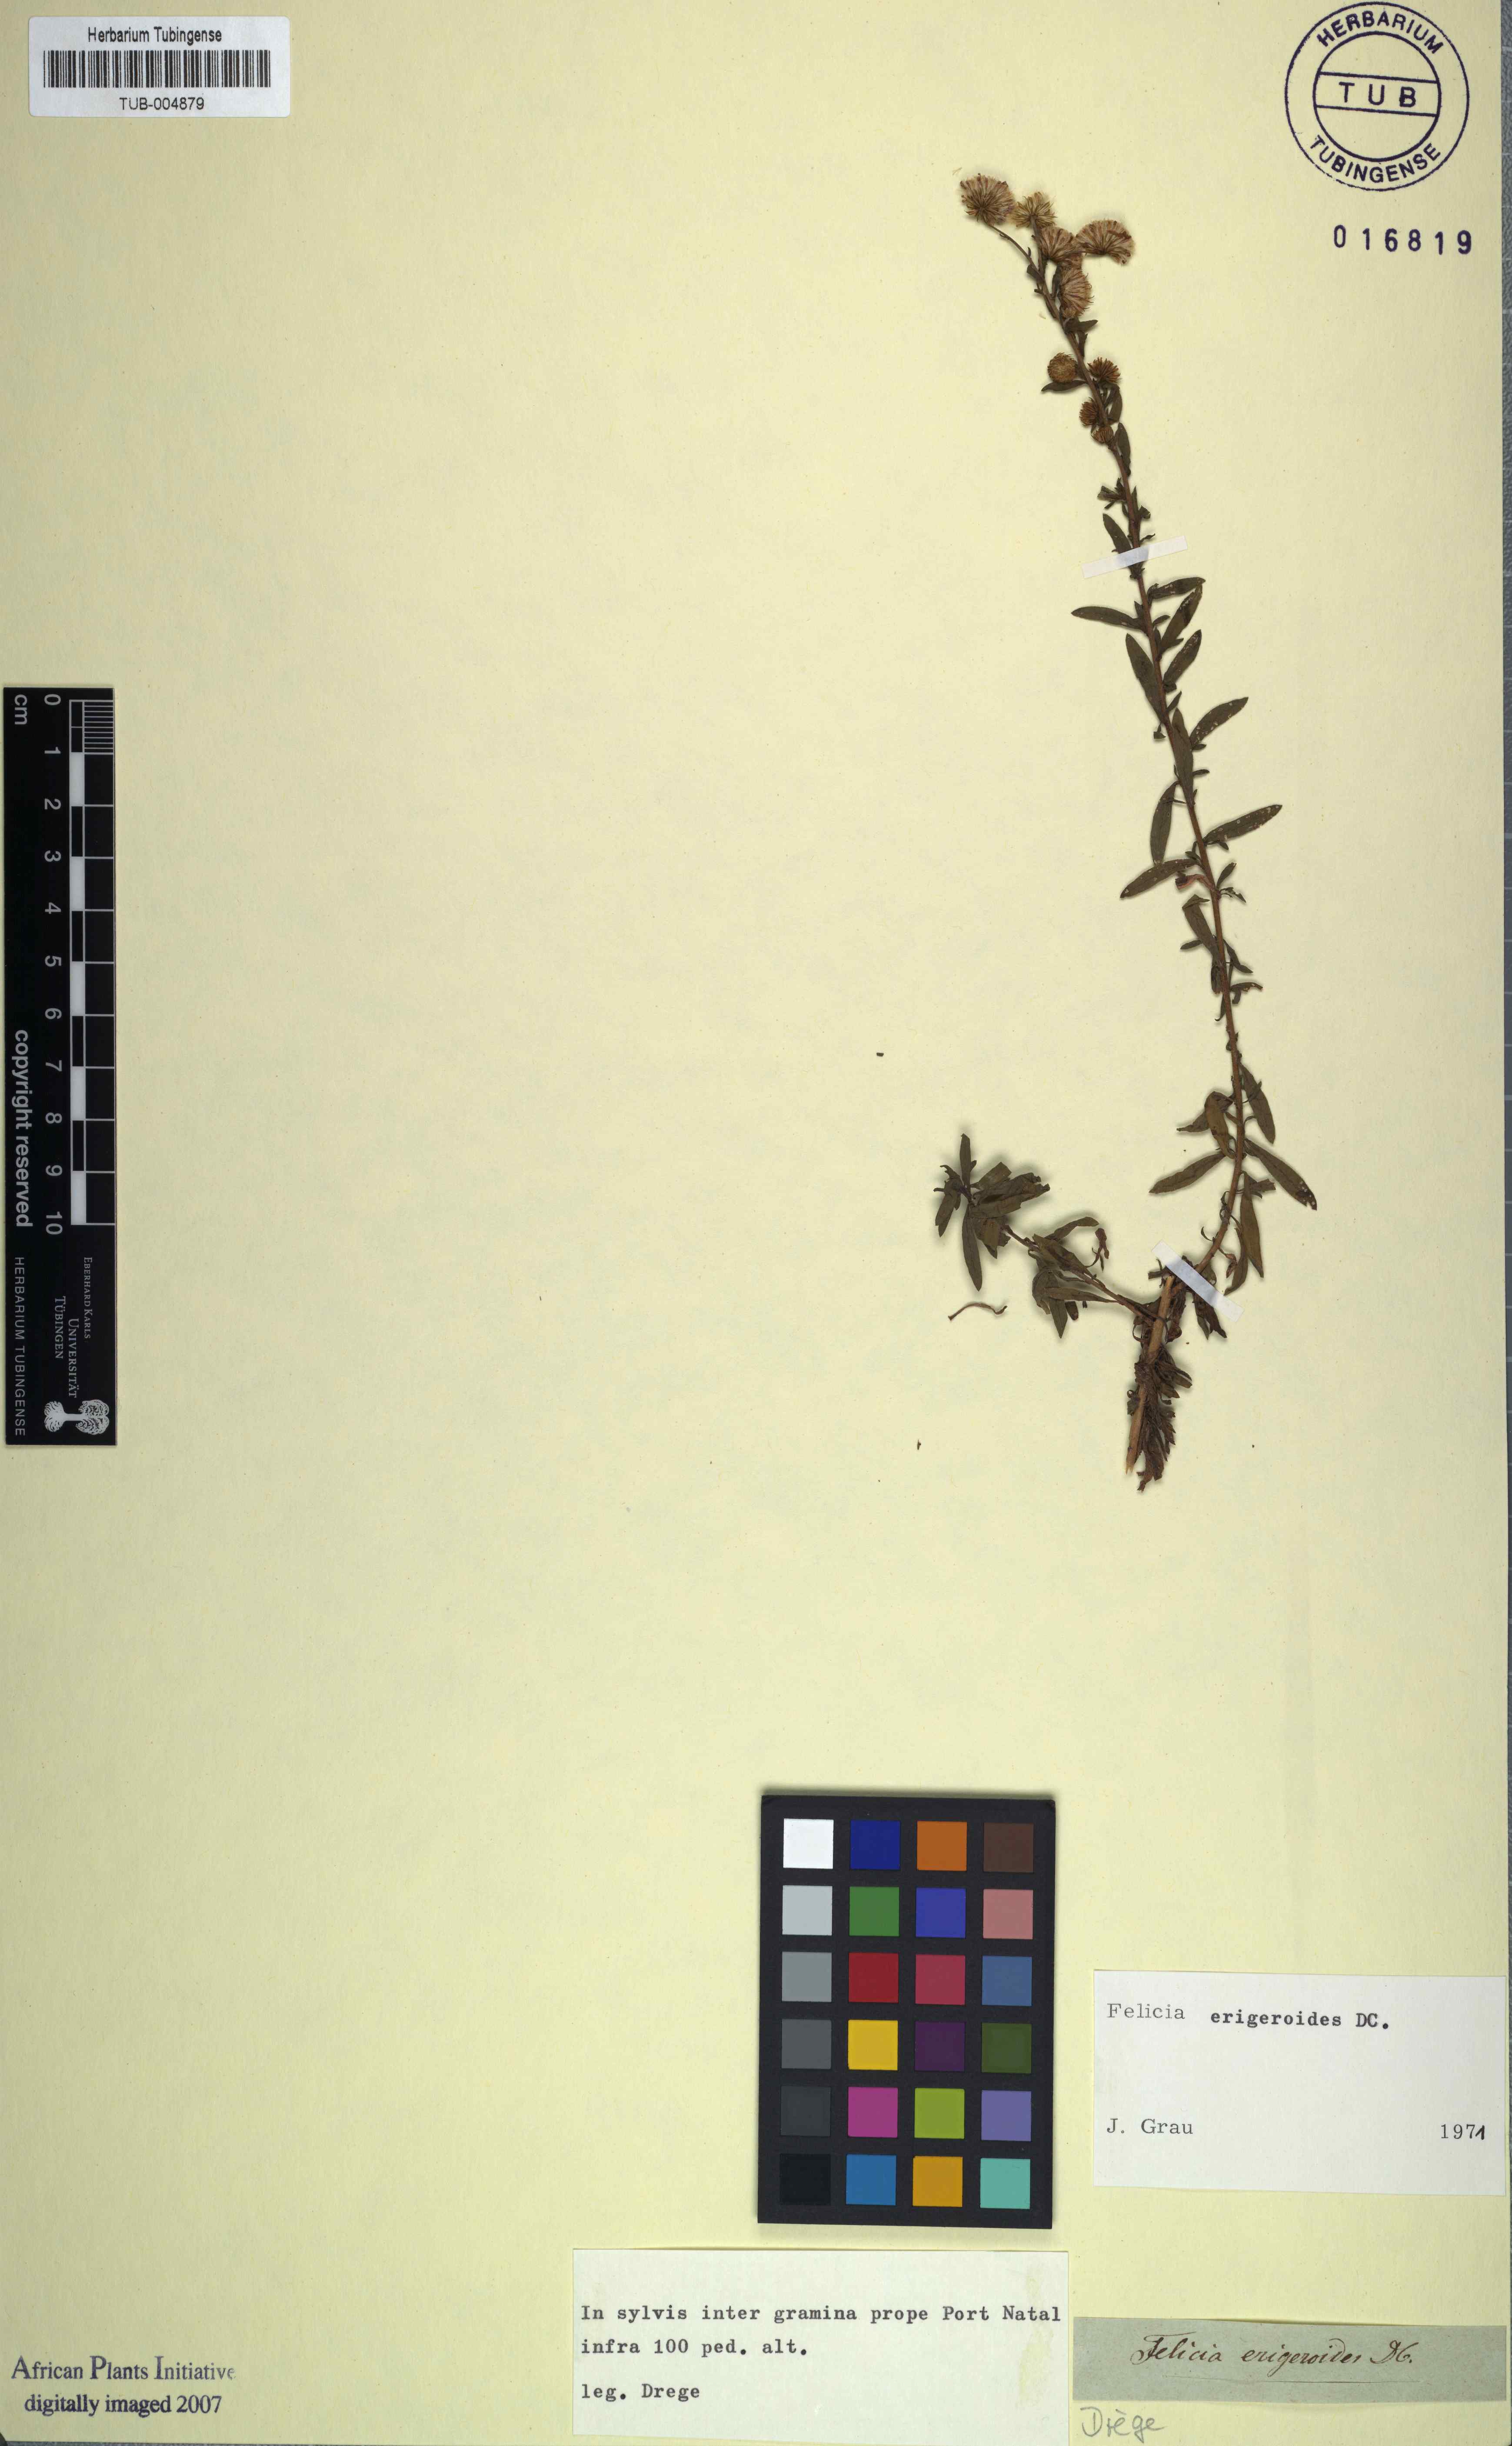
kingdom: Plantae
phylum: Tracheophyta
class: Magnoliopsida
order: Asterales
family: Asteraceae
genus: Felicia
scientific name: Felicia erigeroides
